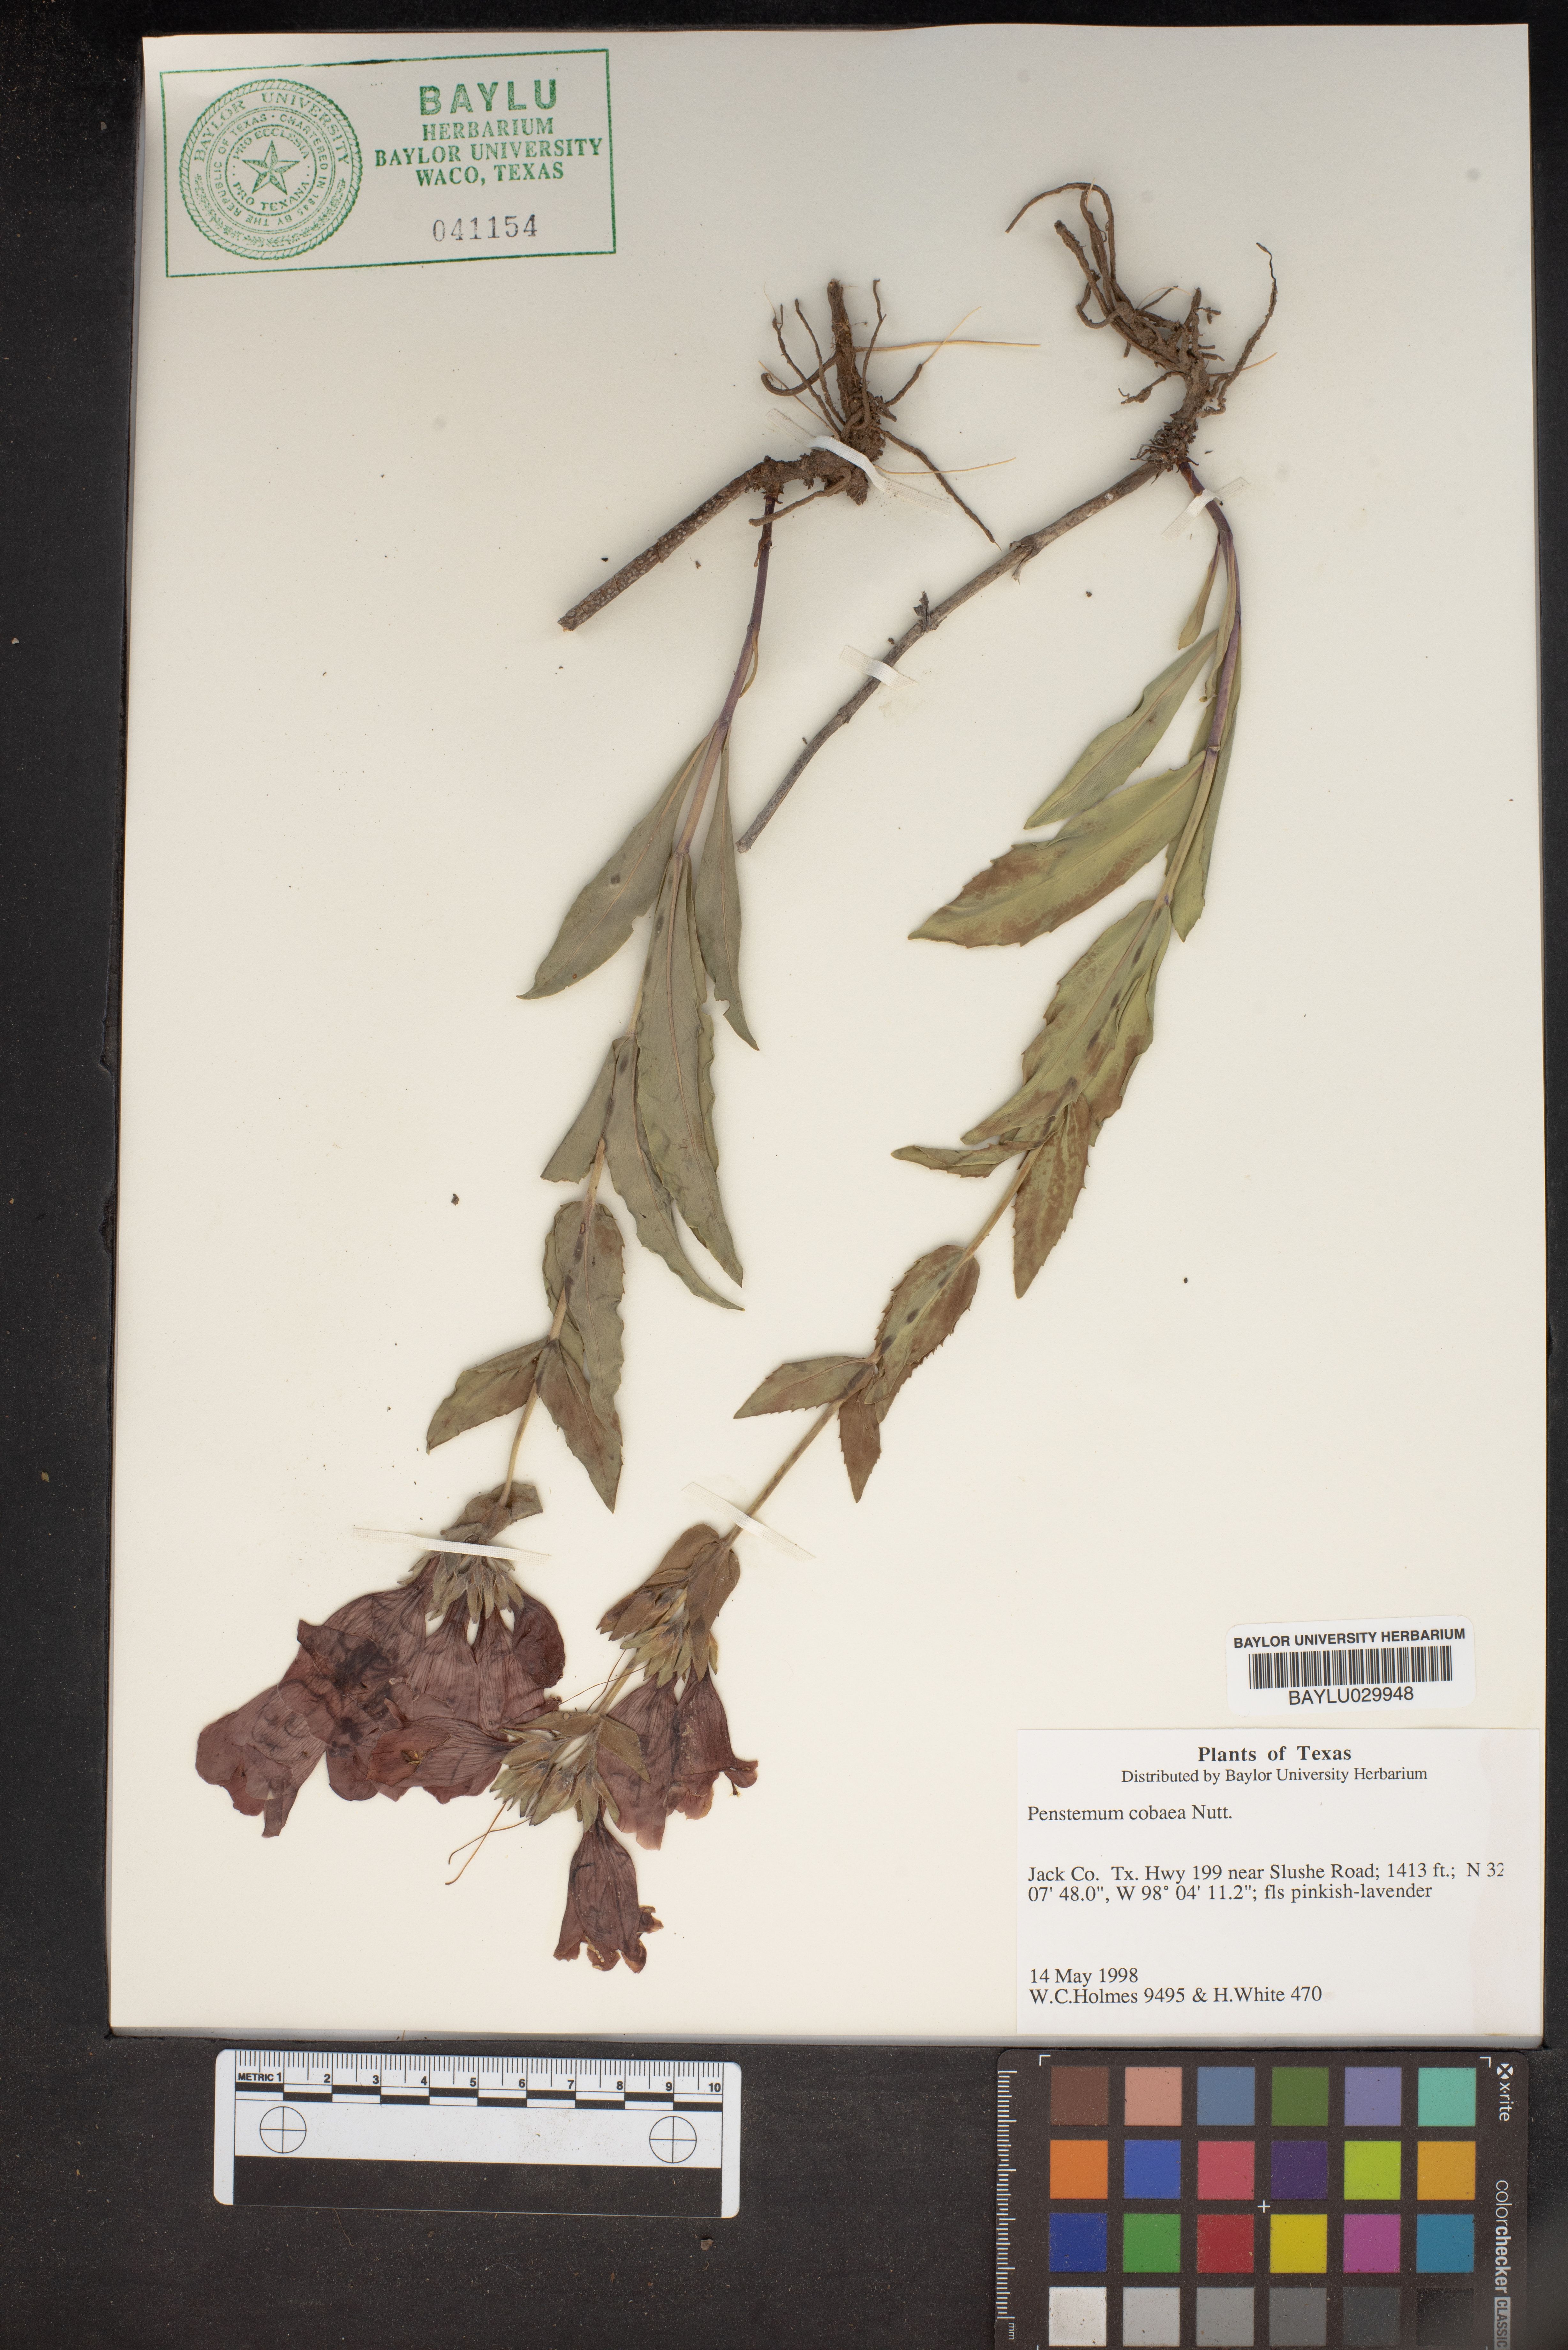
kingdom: Plantae
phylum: Tracheophyta
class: Magnoliopsida
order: Lamiales
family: Plantaginaceae
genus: Penstemon
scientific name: Penstemon cobaea
